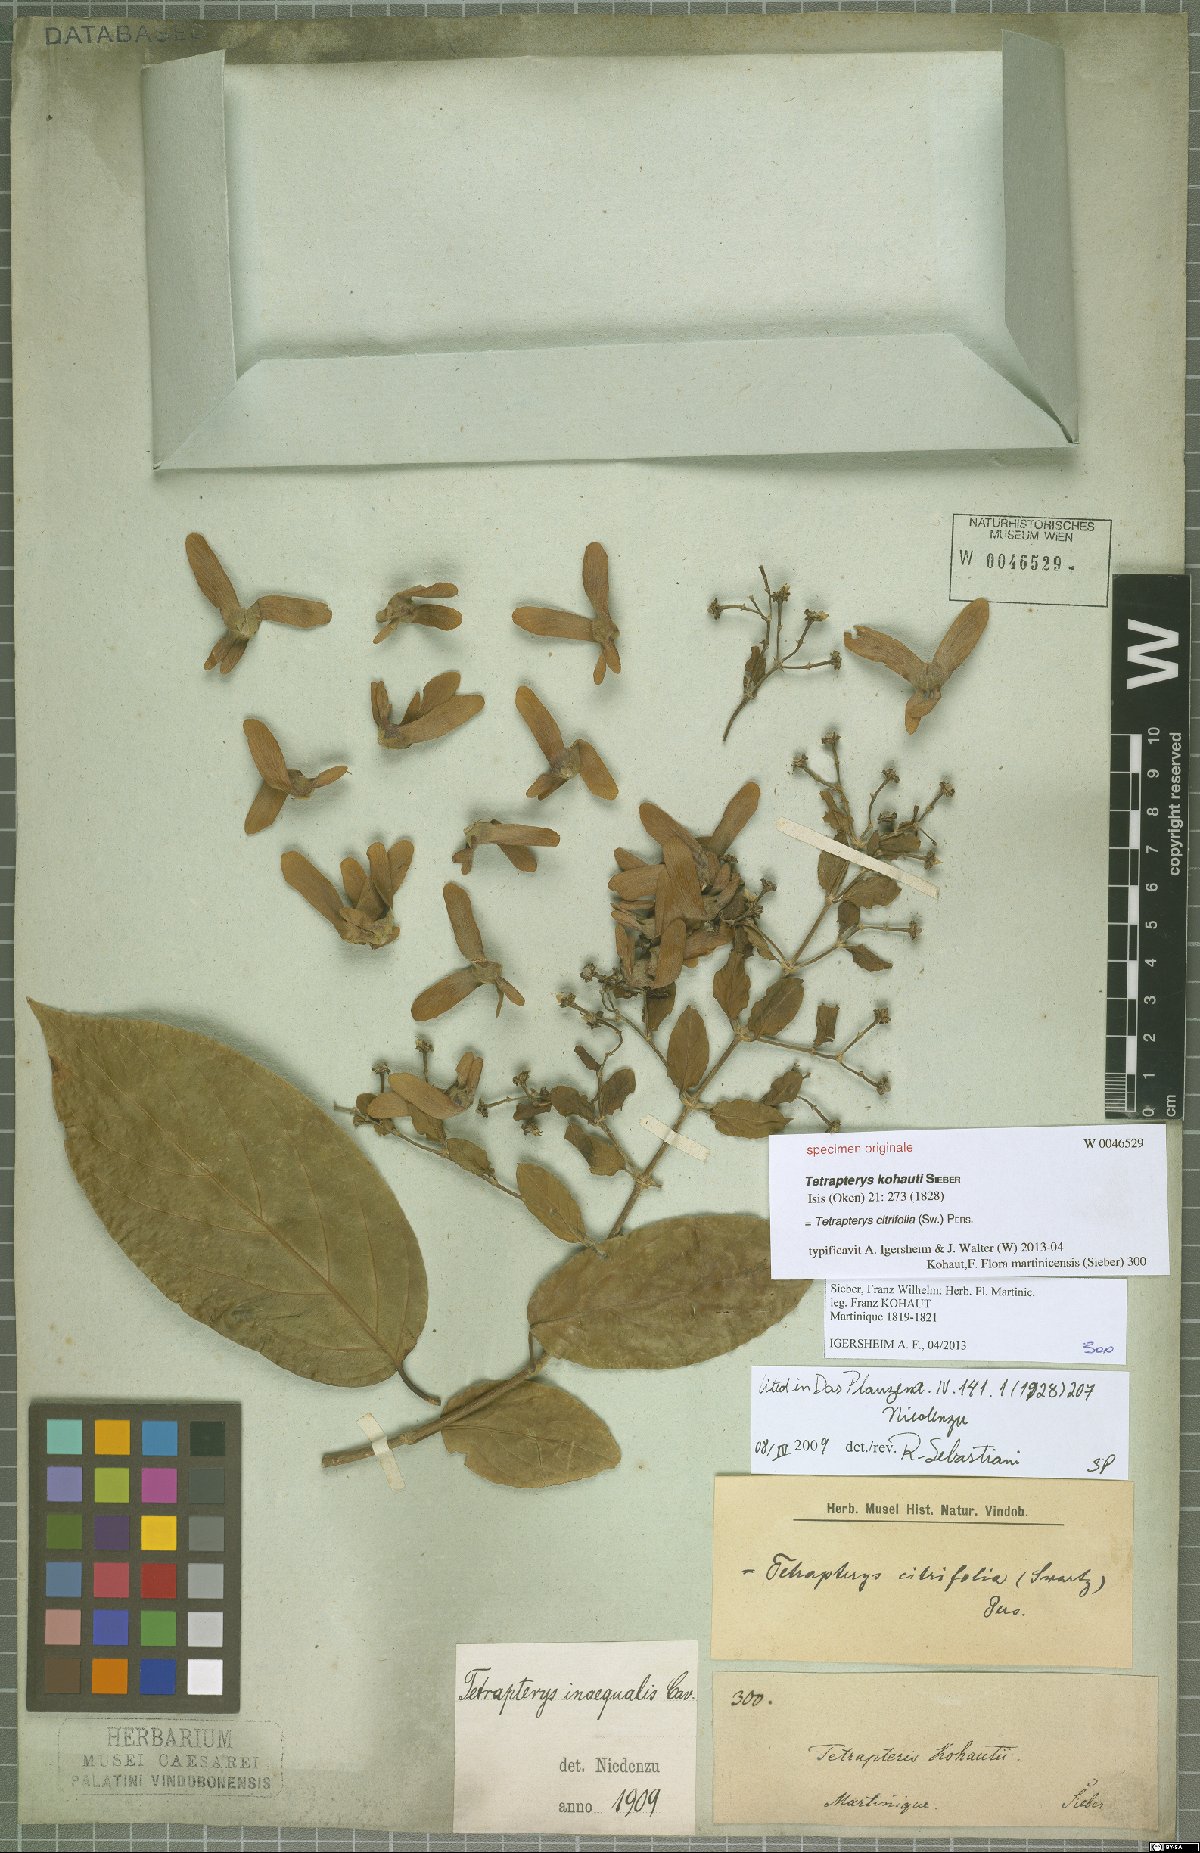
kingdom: Plantae
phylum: Tracheophyta
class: Magnoliopsida
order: Malpighiales
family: Malpighiaceae
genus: Tetrapterys
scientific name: Tetrapterys citrifolia
